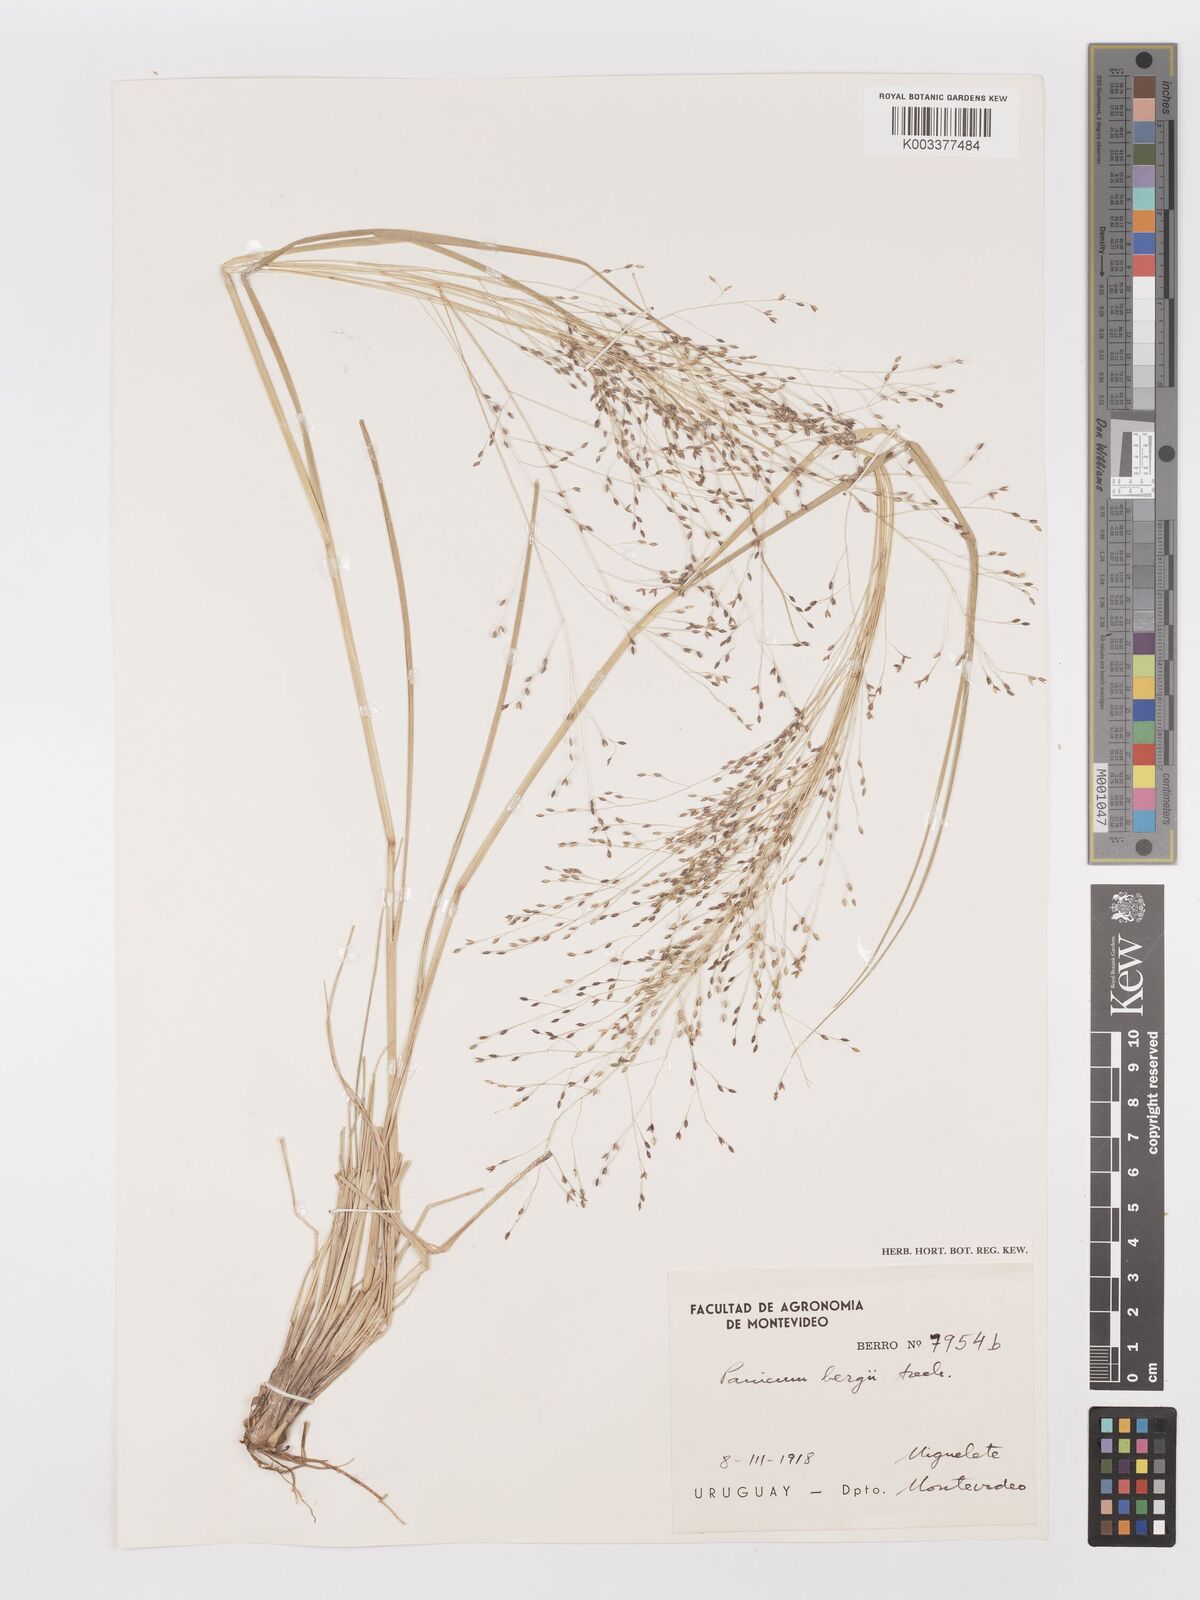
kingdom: Plantae
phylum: Tracheophyta
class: Liliopsida
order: Poales
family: Poaceae
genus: Panicum
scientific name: Panicum bergii
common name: Berg's panicgrass
